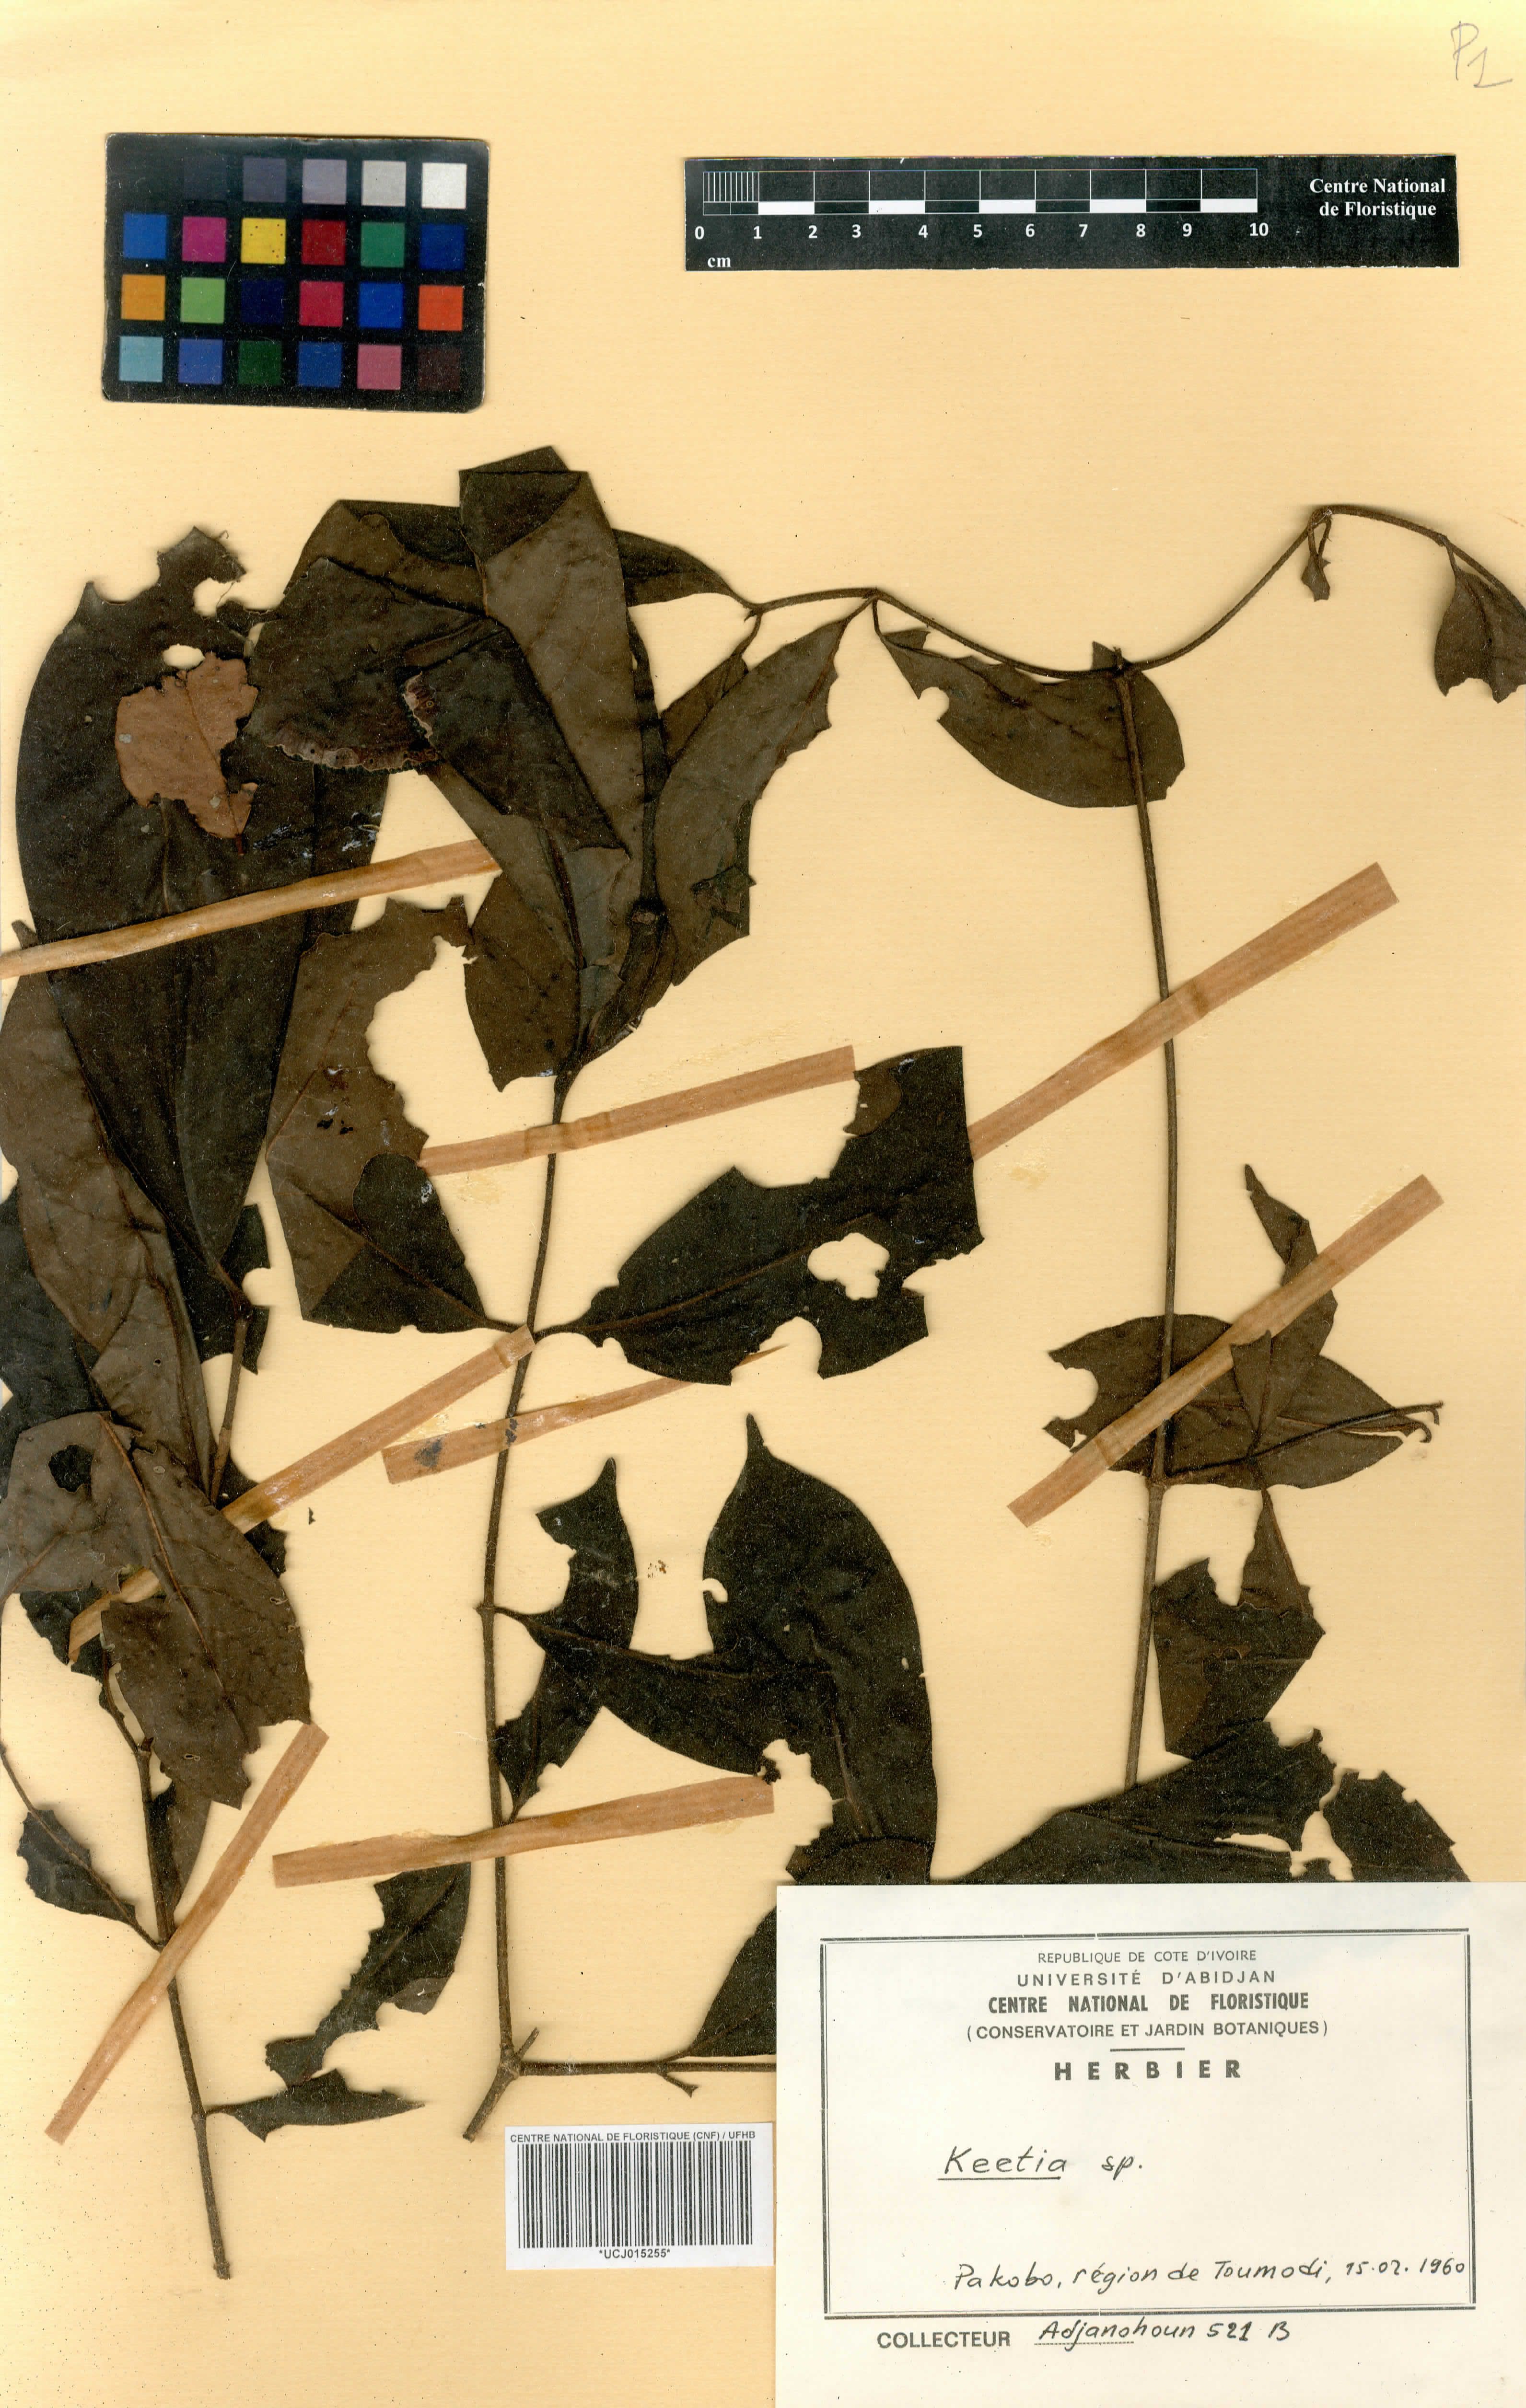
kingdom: Plantae
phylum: Tracheophyta
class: Magnoliopsida
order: Gentianales
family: Rubiaceae
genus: Keetia
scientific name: Keetia
